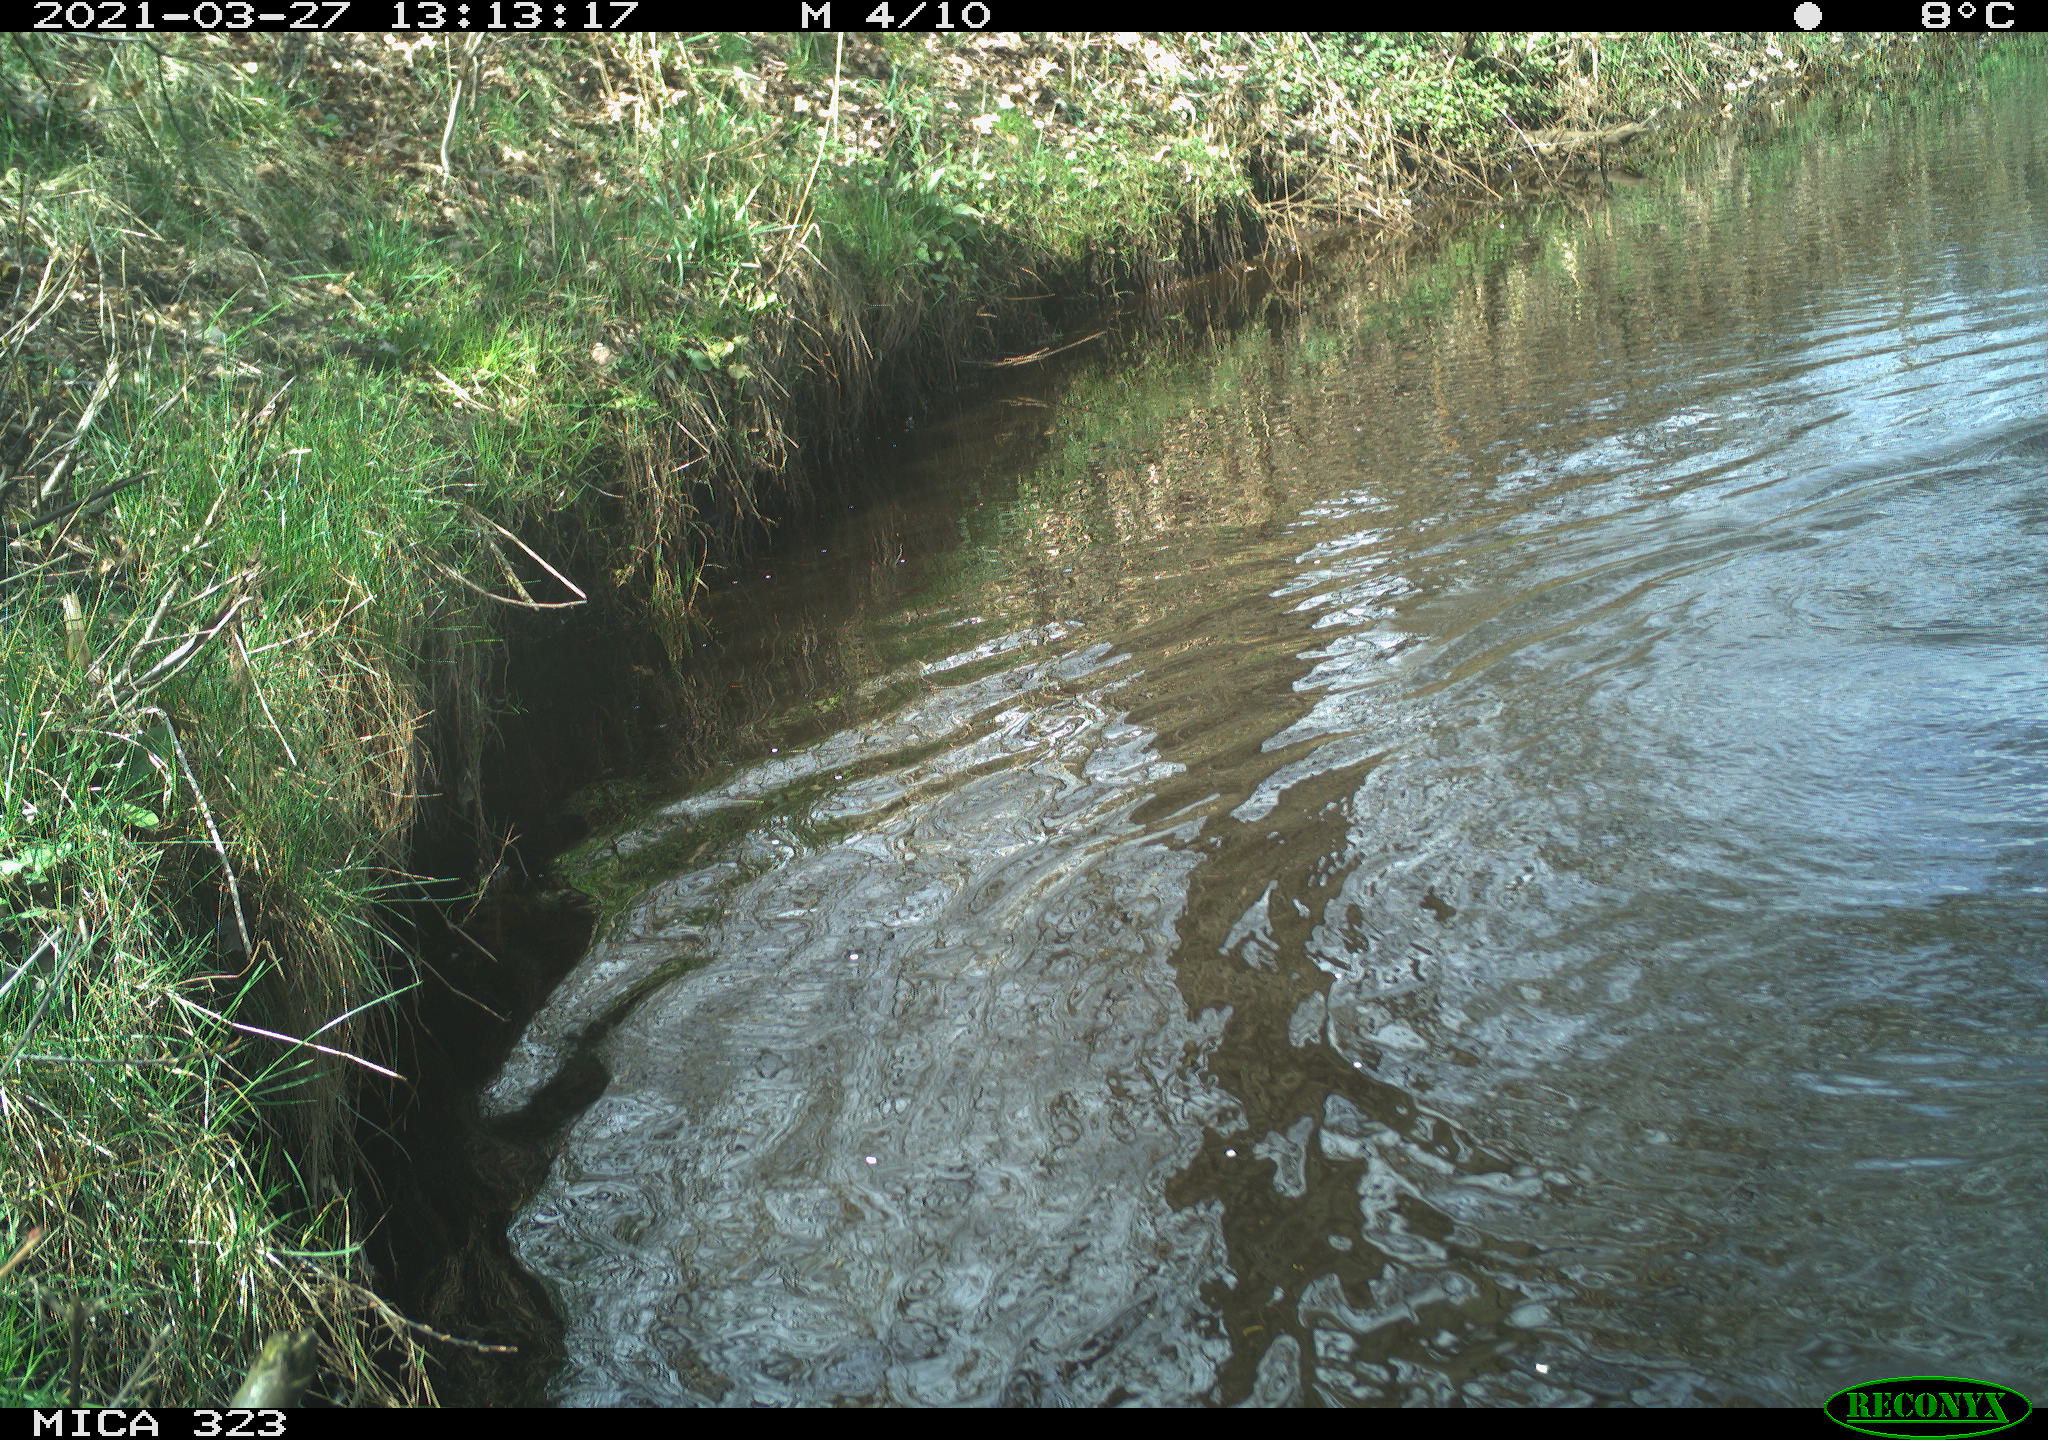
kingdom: Animalia
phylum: Chordata
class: Aves
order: Anseriformes
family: Anatidae
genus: Anas
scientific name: Anas platyrhynchos
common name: Mallard
